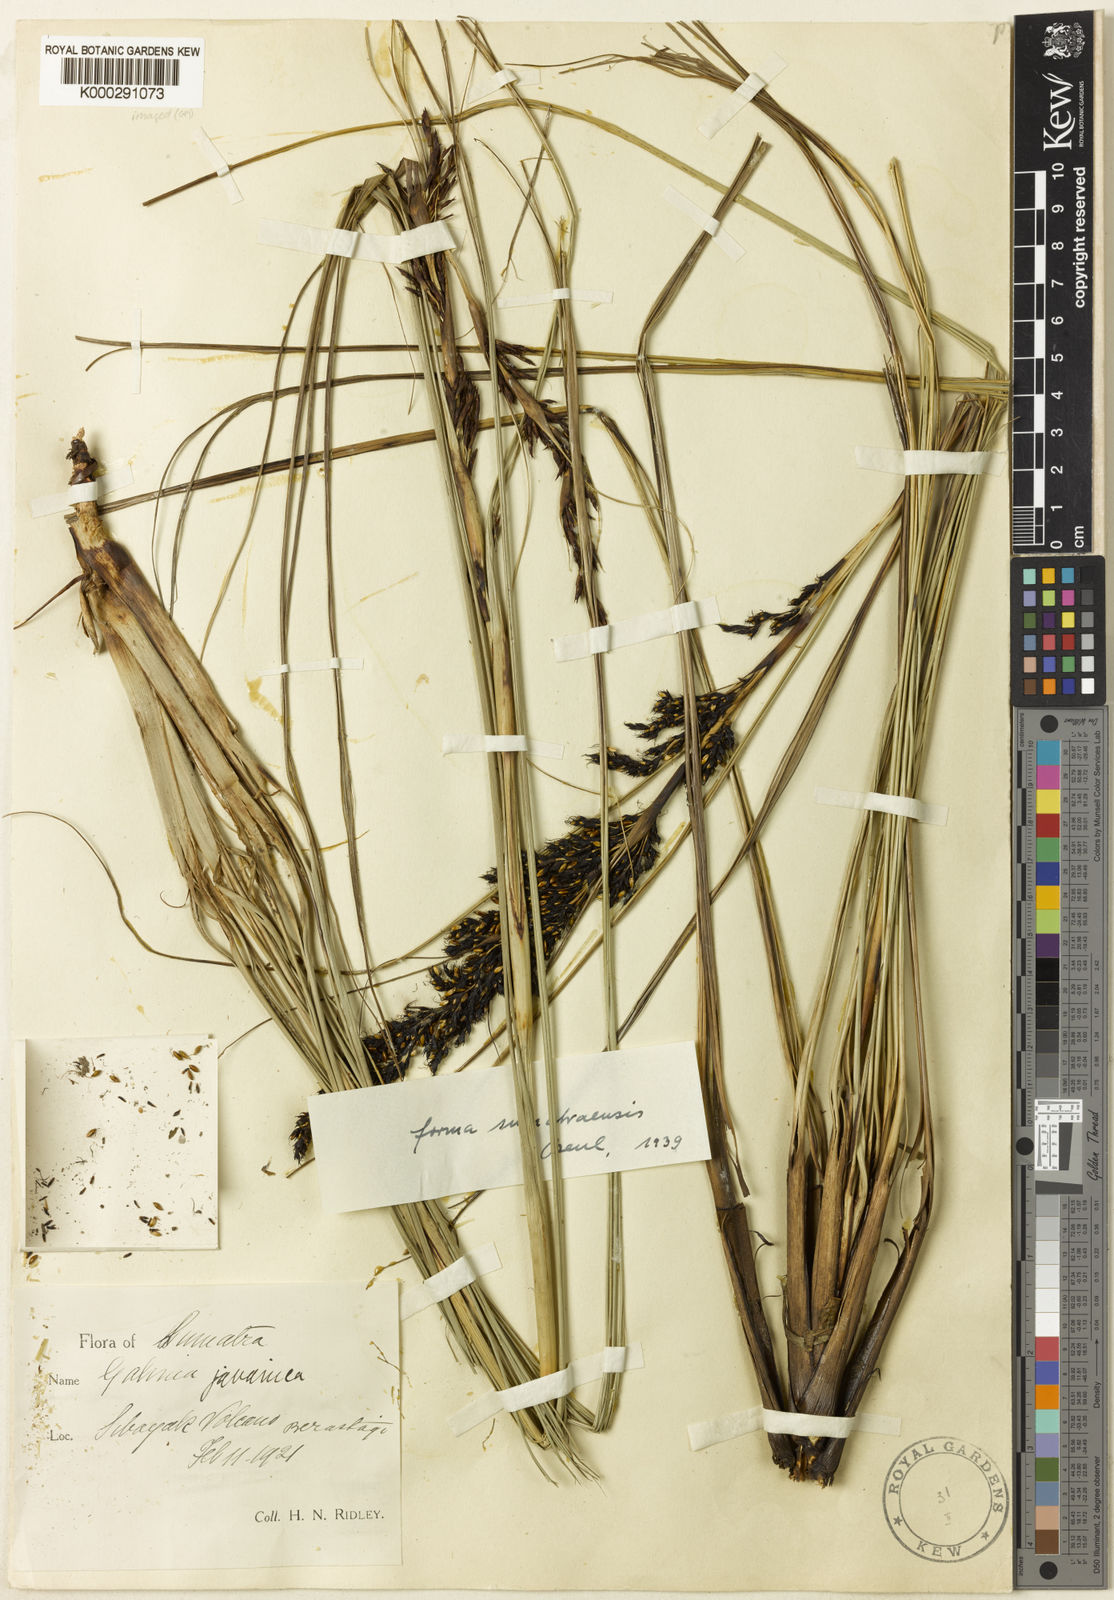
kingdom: Plantae
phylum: Tracheophyta
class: Liliopsida
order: Poales
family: Cyperaceae
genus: Gahnia
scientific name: Gahnia javanica
